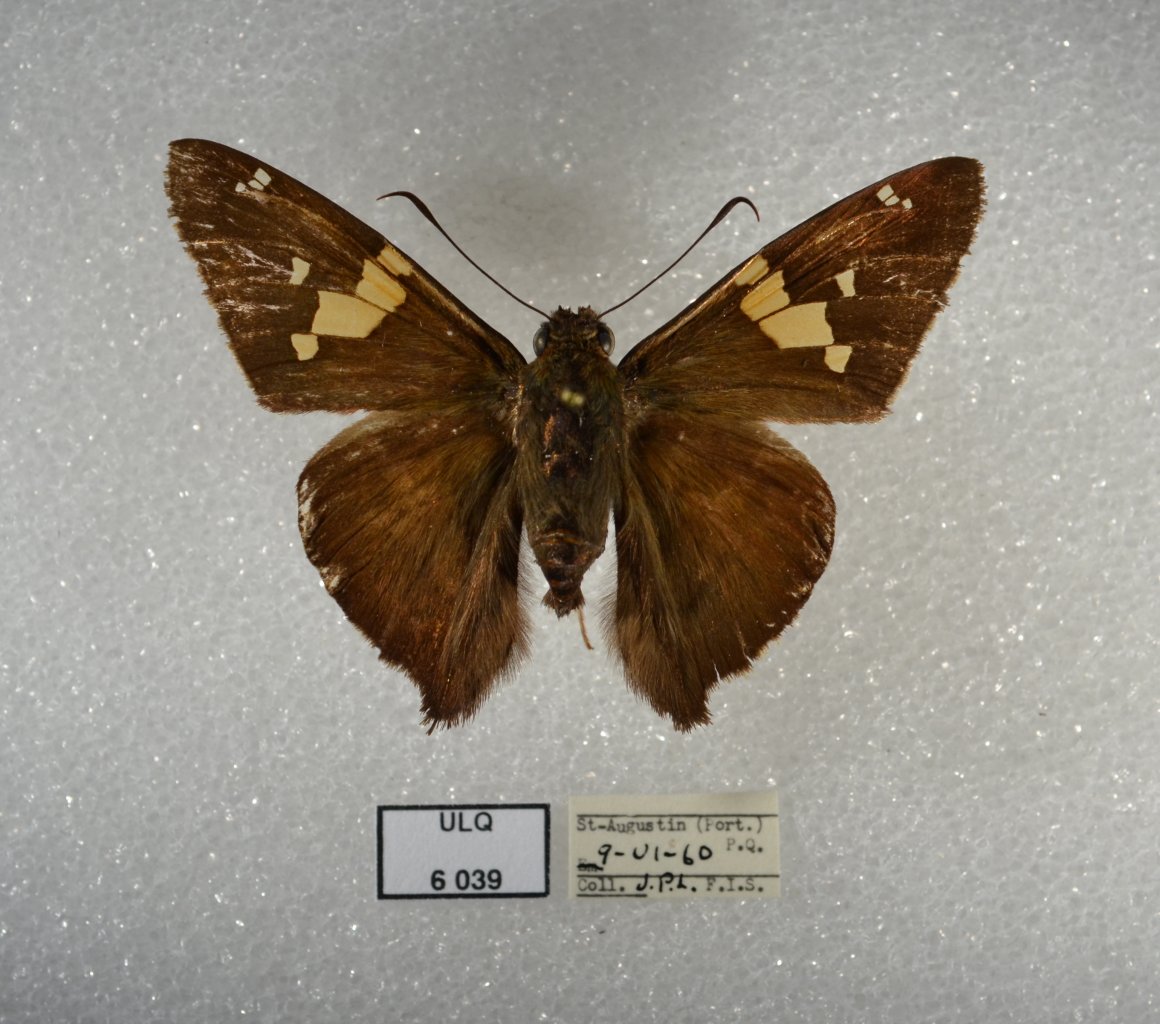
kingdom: Animalia
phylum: Arthropoda
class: Insecta
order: Lepidoptera
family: Hesperiidae
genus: Epargyreus
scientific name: Epargyreus clarus
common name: Silver-spotted Skipper
